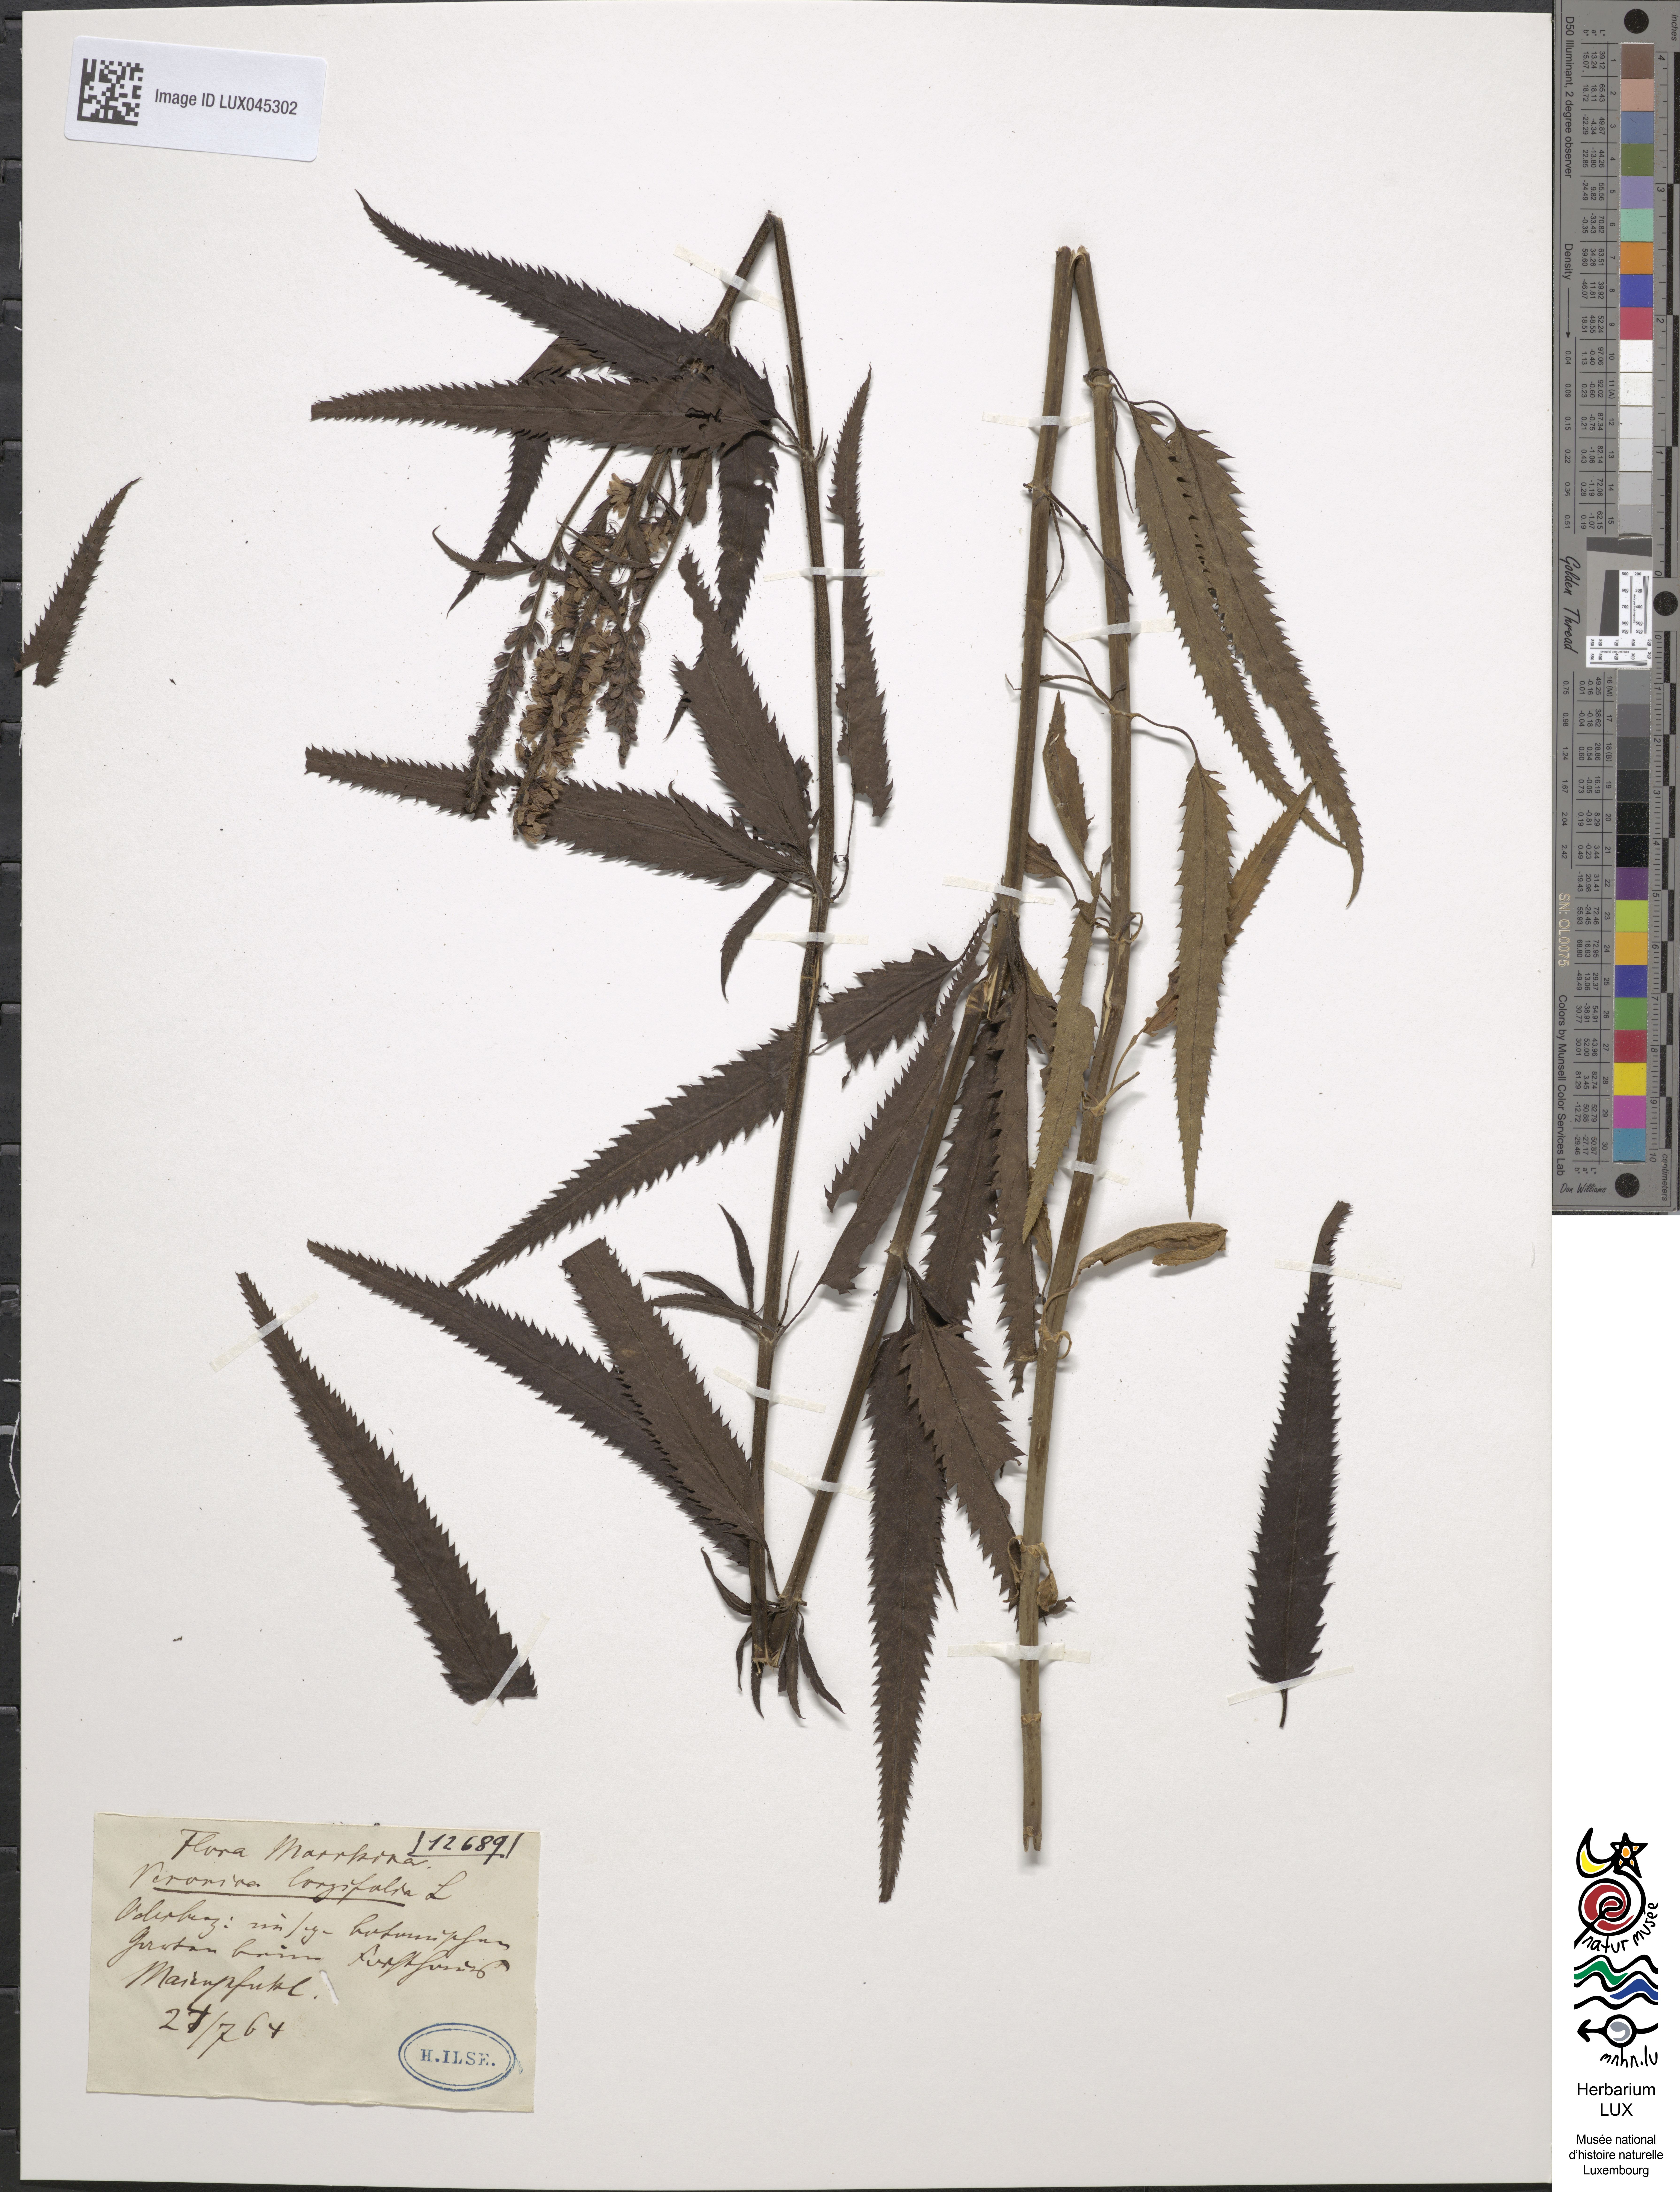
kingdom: Plantae
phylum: Tracheophyta
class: Magnoliopsida
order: Lamiales
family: Plantaginaceae
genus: Veronica
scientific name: Veronica longifolia
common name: Garden speedwell
